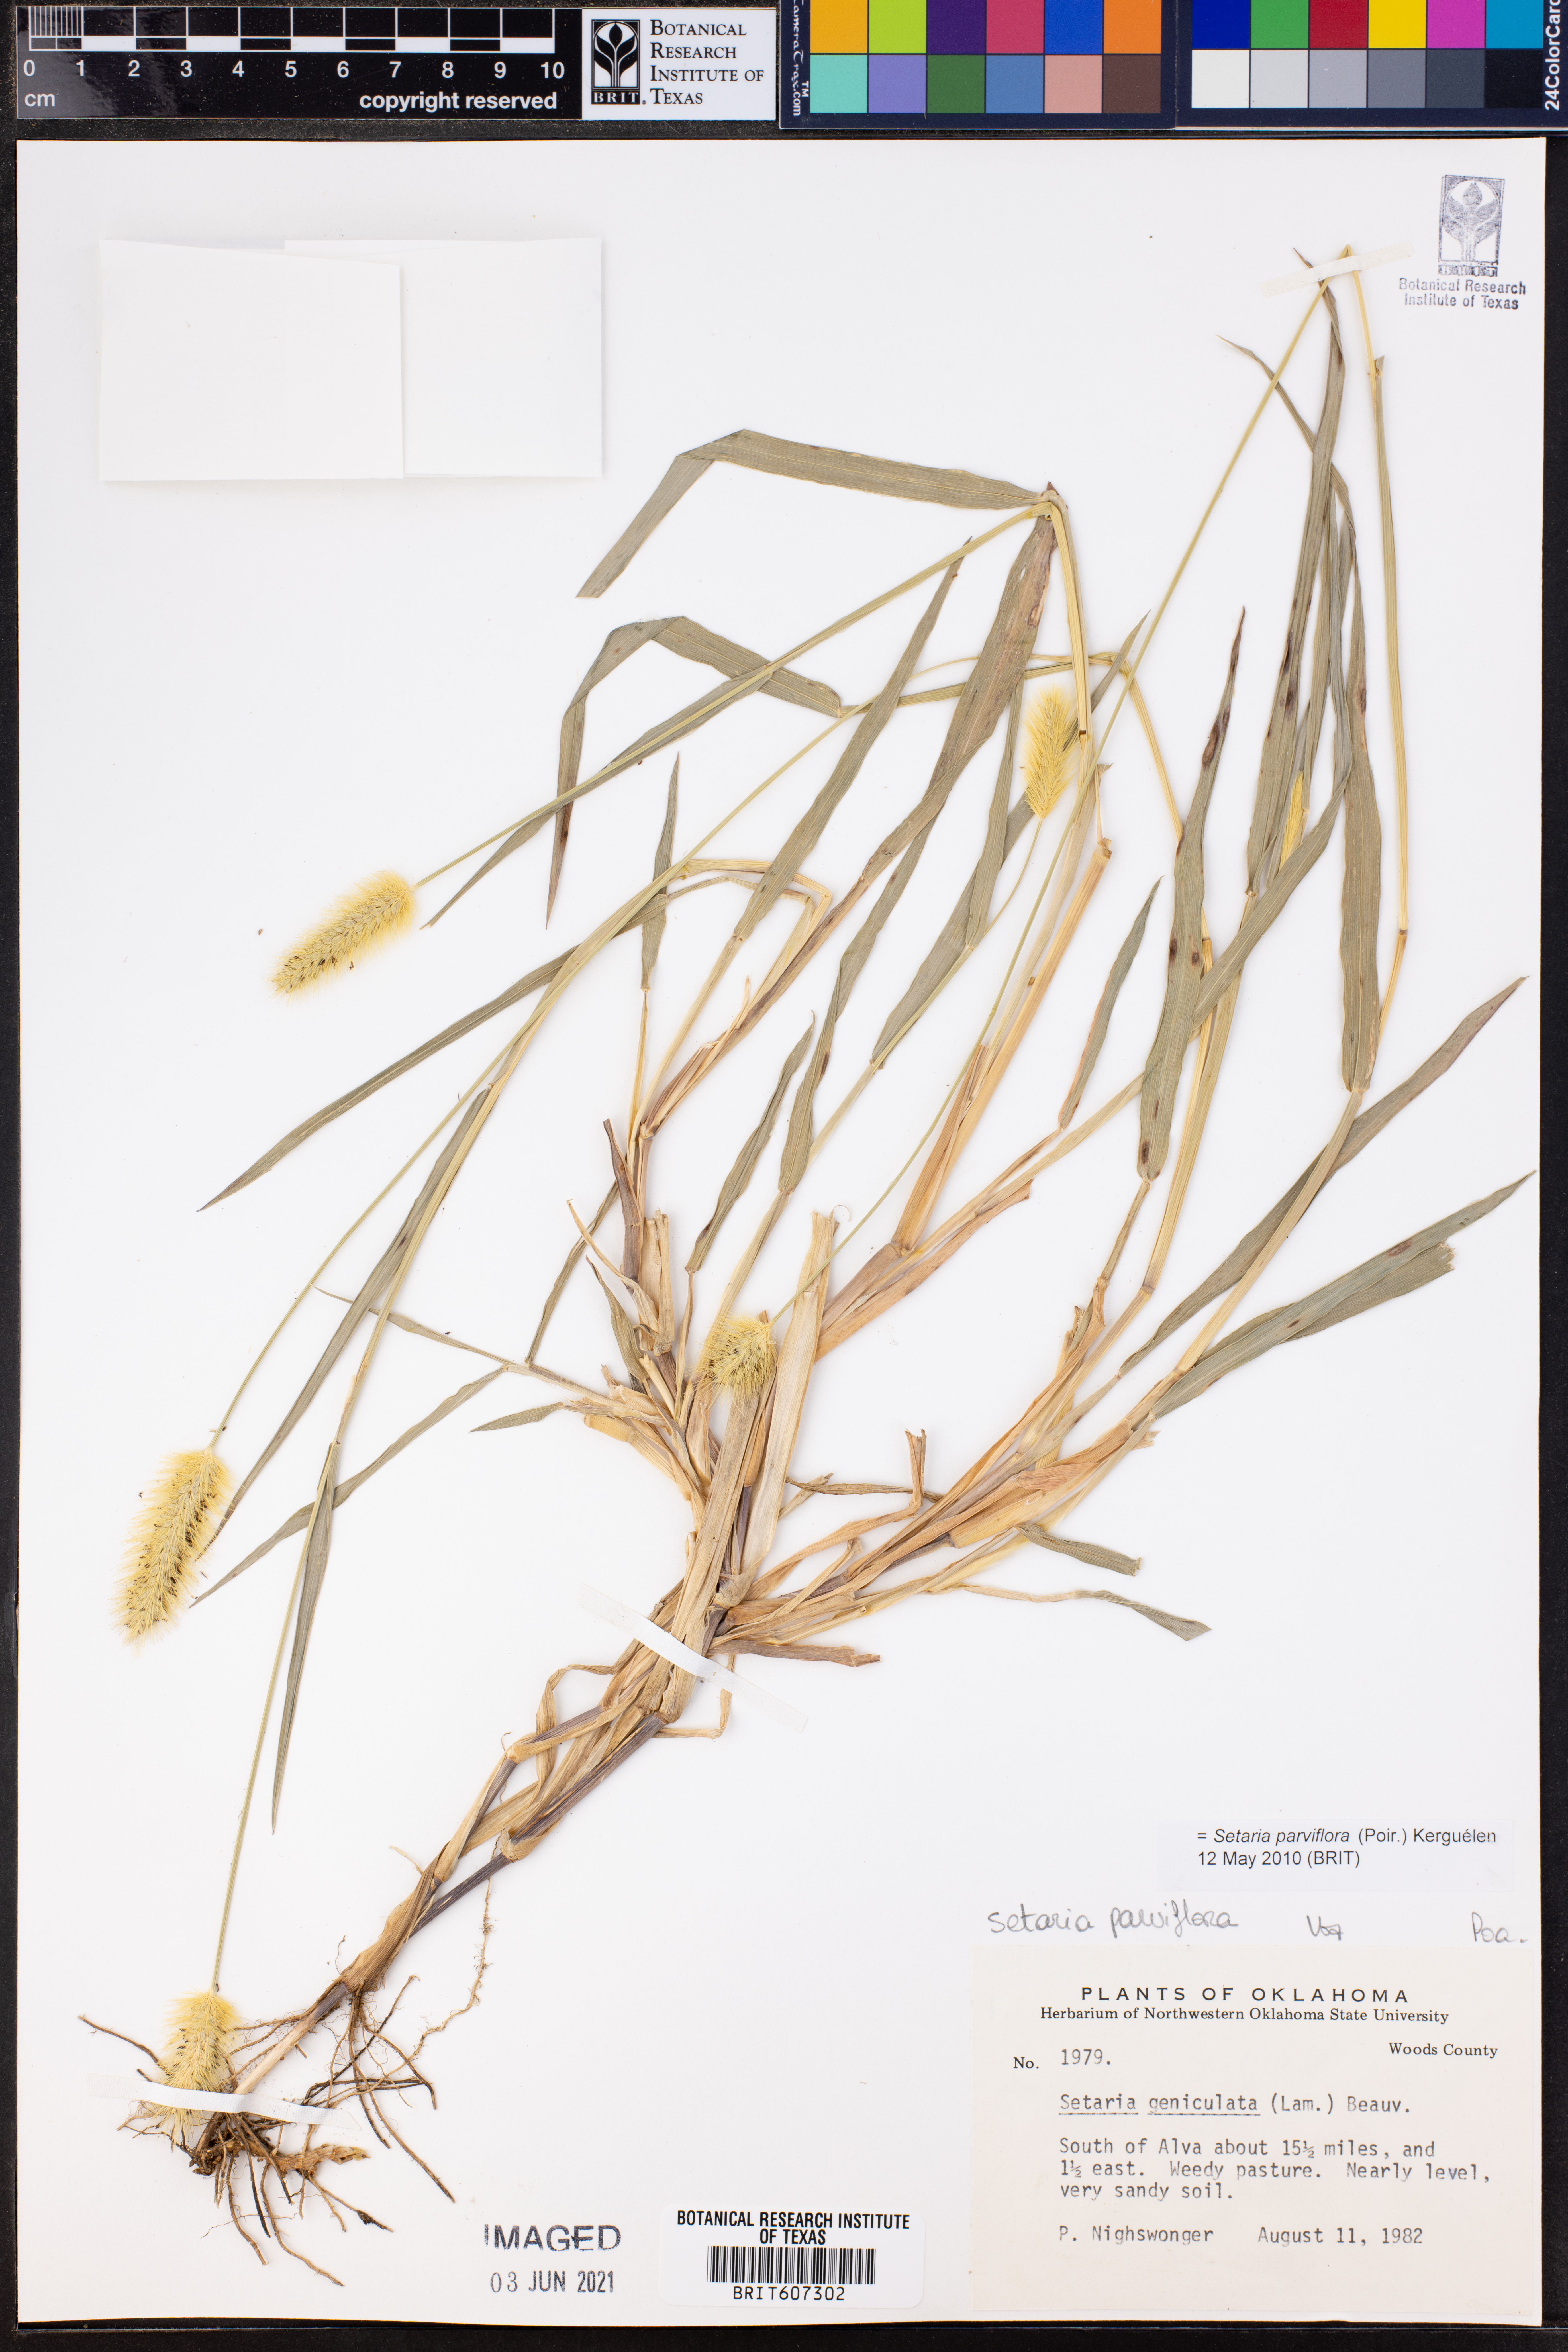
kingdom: Plantae
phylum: Tracheophyta
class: Liliopsida
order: Poales
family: Poaceae
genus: Setaria
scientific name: Setaria parviflora
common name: Knotroot bristle-grass
